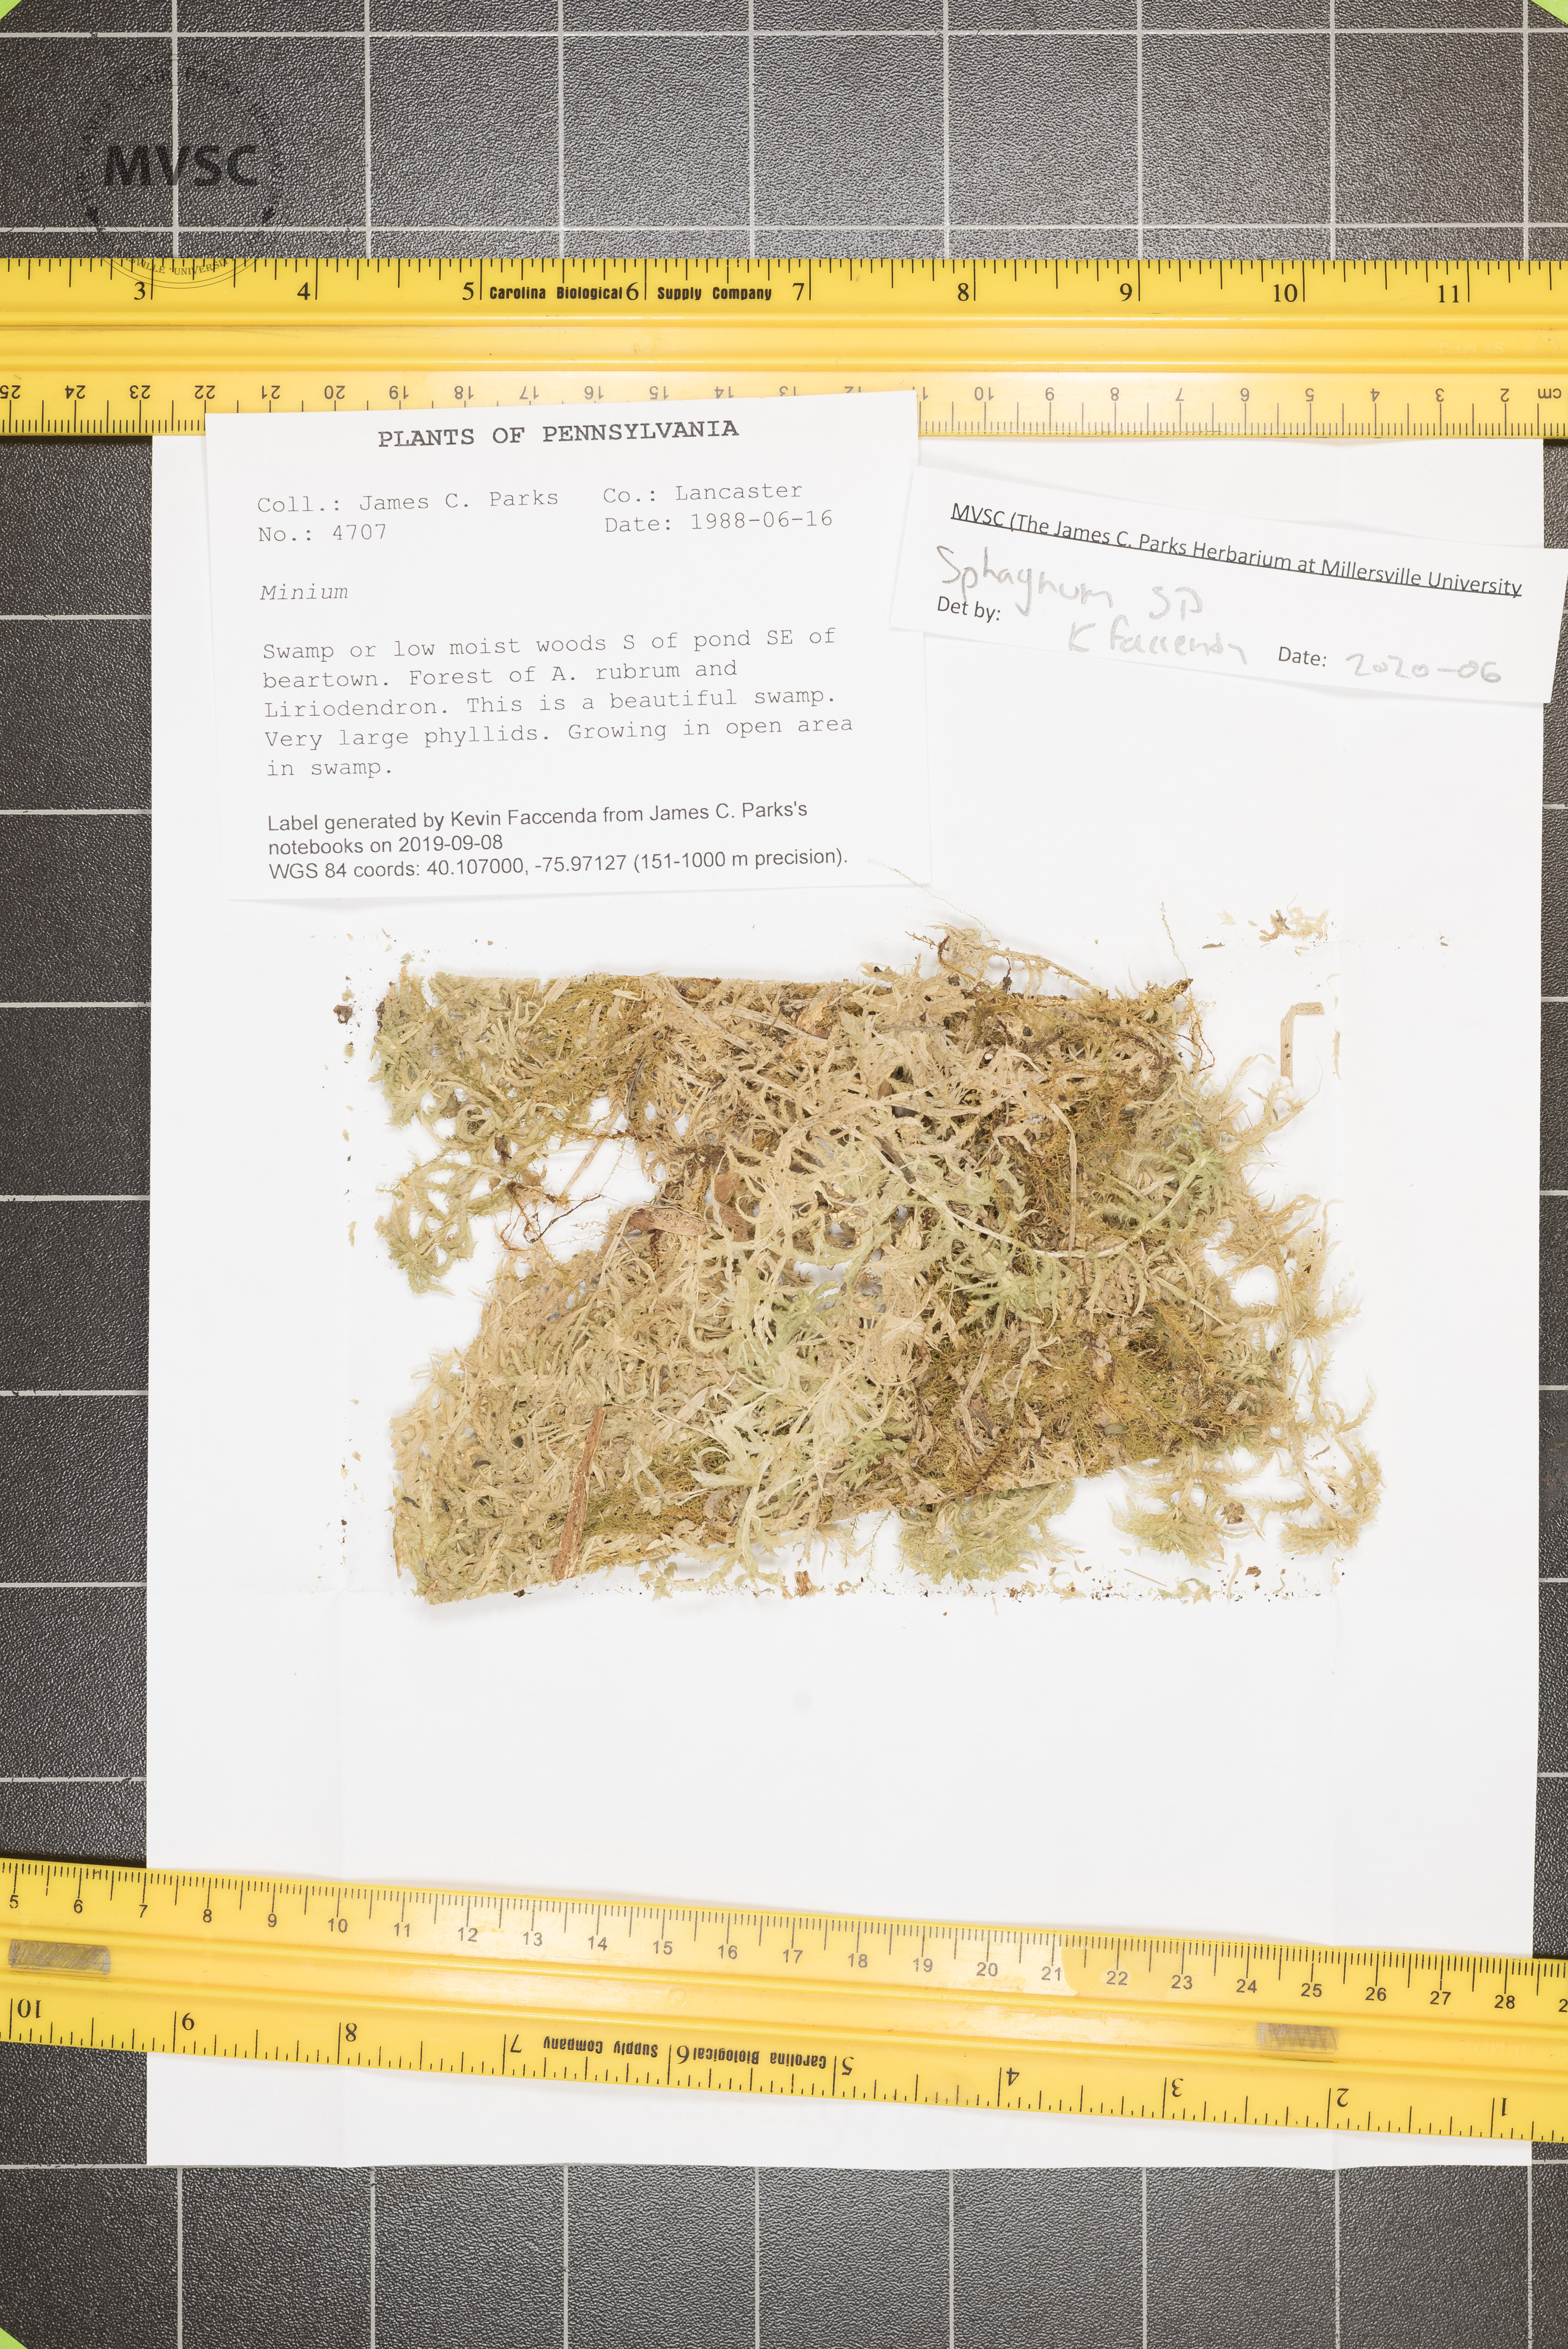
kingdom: Plantae
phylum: Bryophyta
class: Sphagnopsida
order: Sphagnales
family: Sphagnaceae
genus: Sphagnum
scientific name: Sphagnum
